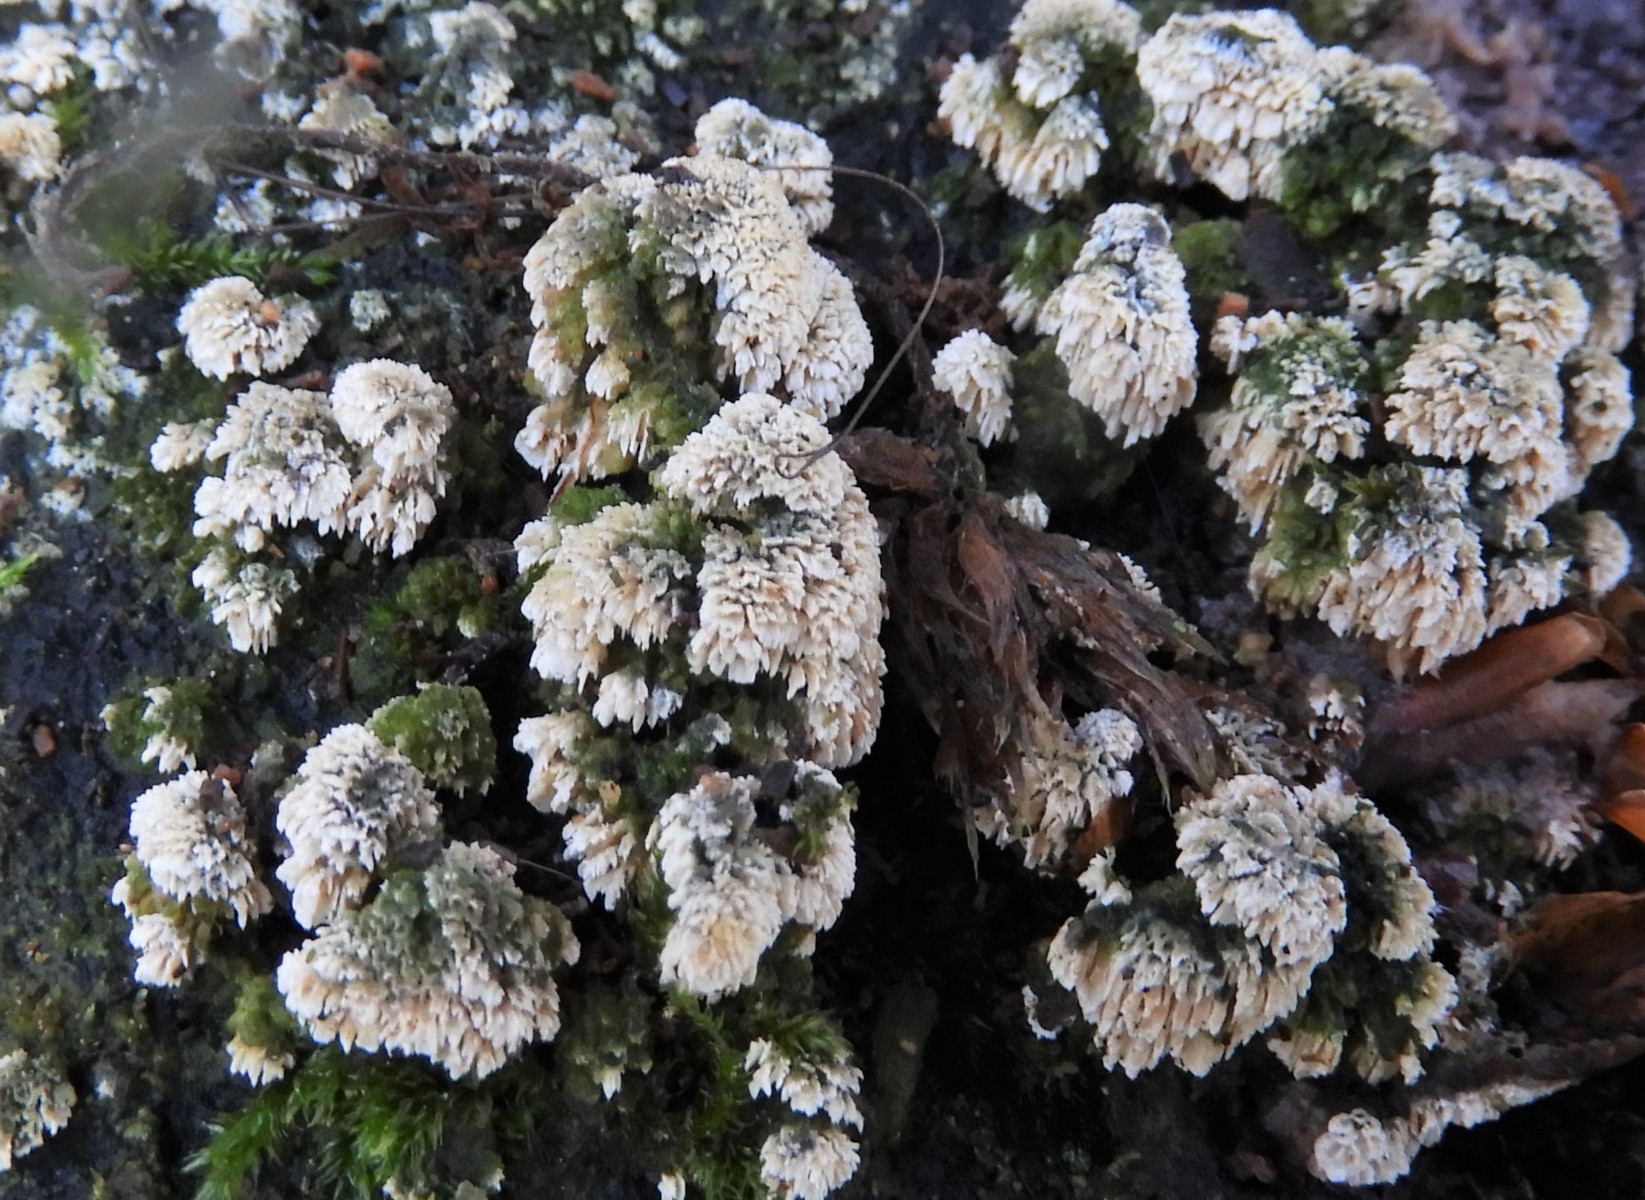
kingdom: Fungi
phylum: Basidiomycota
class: Agaricomycetes
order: Hymenochaetales
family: Schizoporaceae
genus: Schizopora
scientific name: Schizopora paradoxa
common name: hvid tandsvamp
